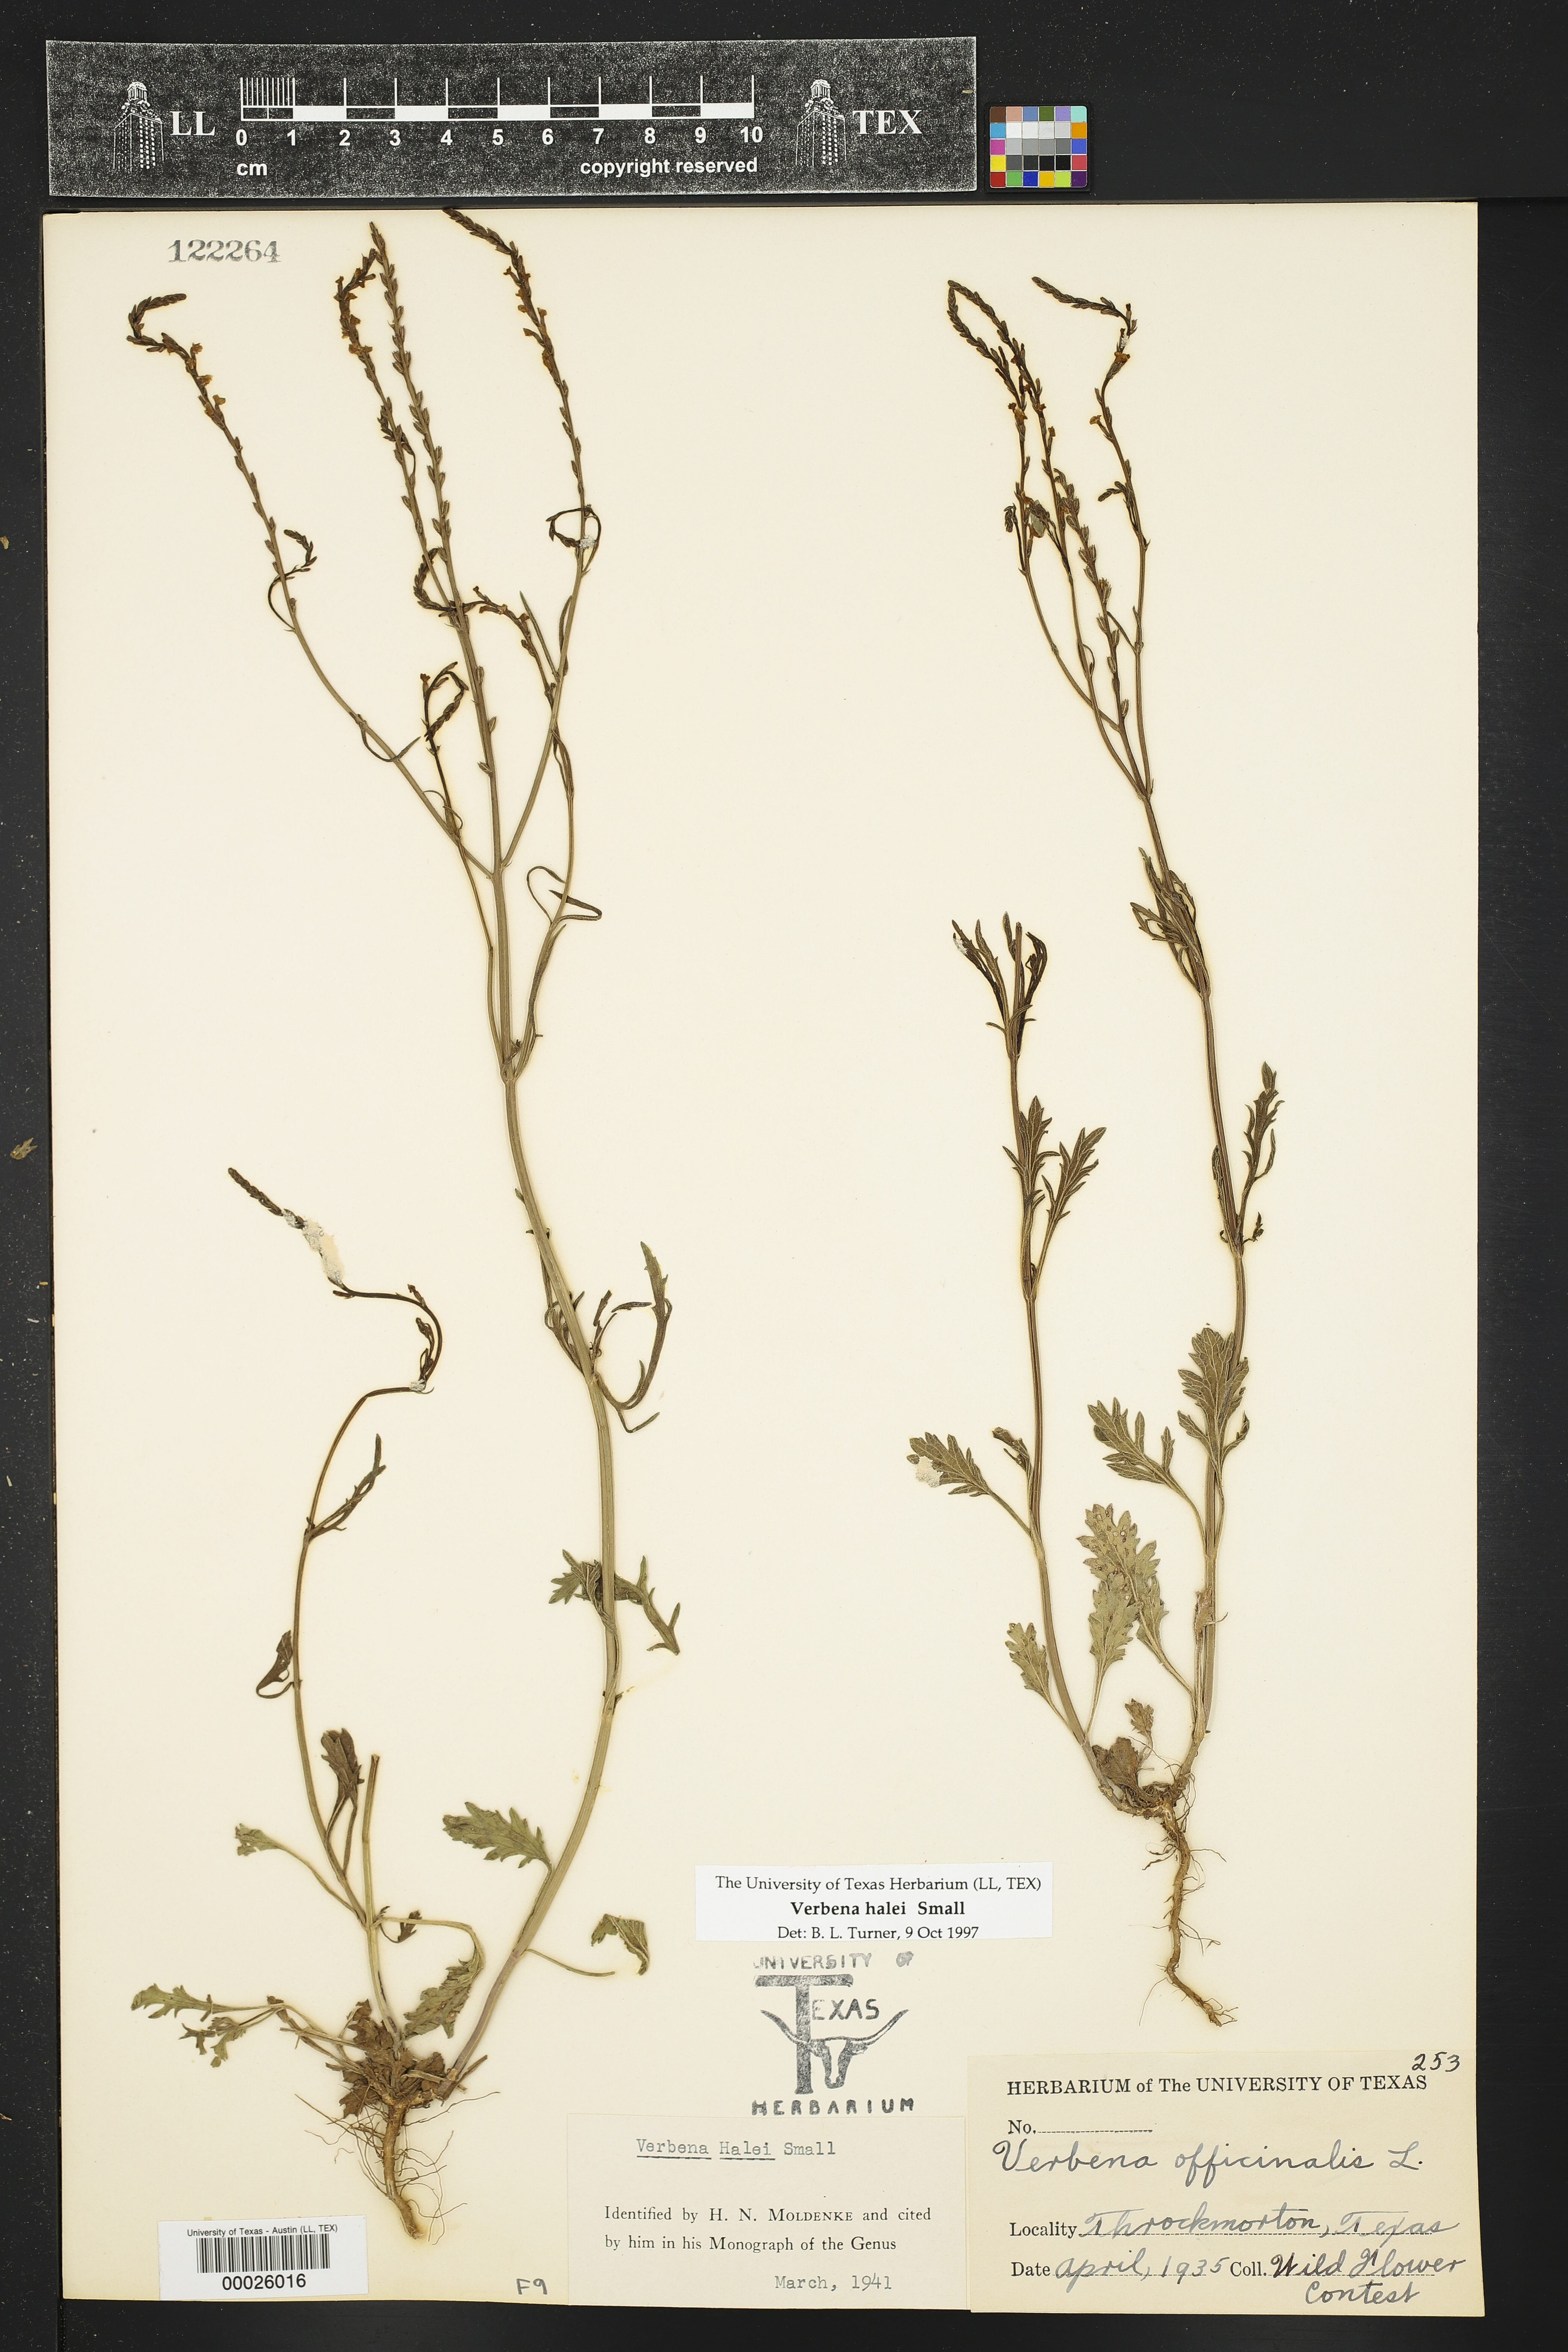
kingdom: Plantae
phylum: Tracheophyta
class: Magnoliopsida
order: Lamiales
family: Verbenaceae
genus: Verbena
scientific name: Verbena halei
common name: Texas vervain
